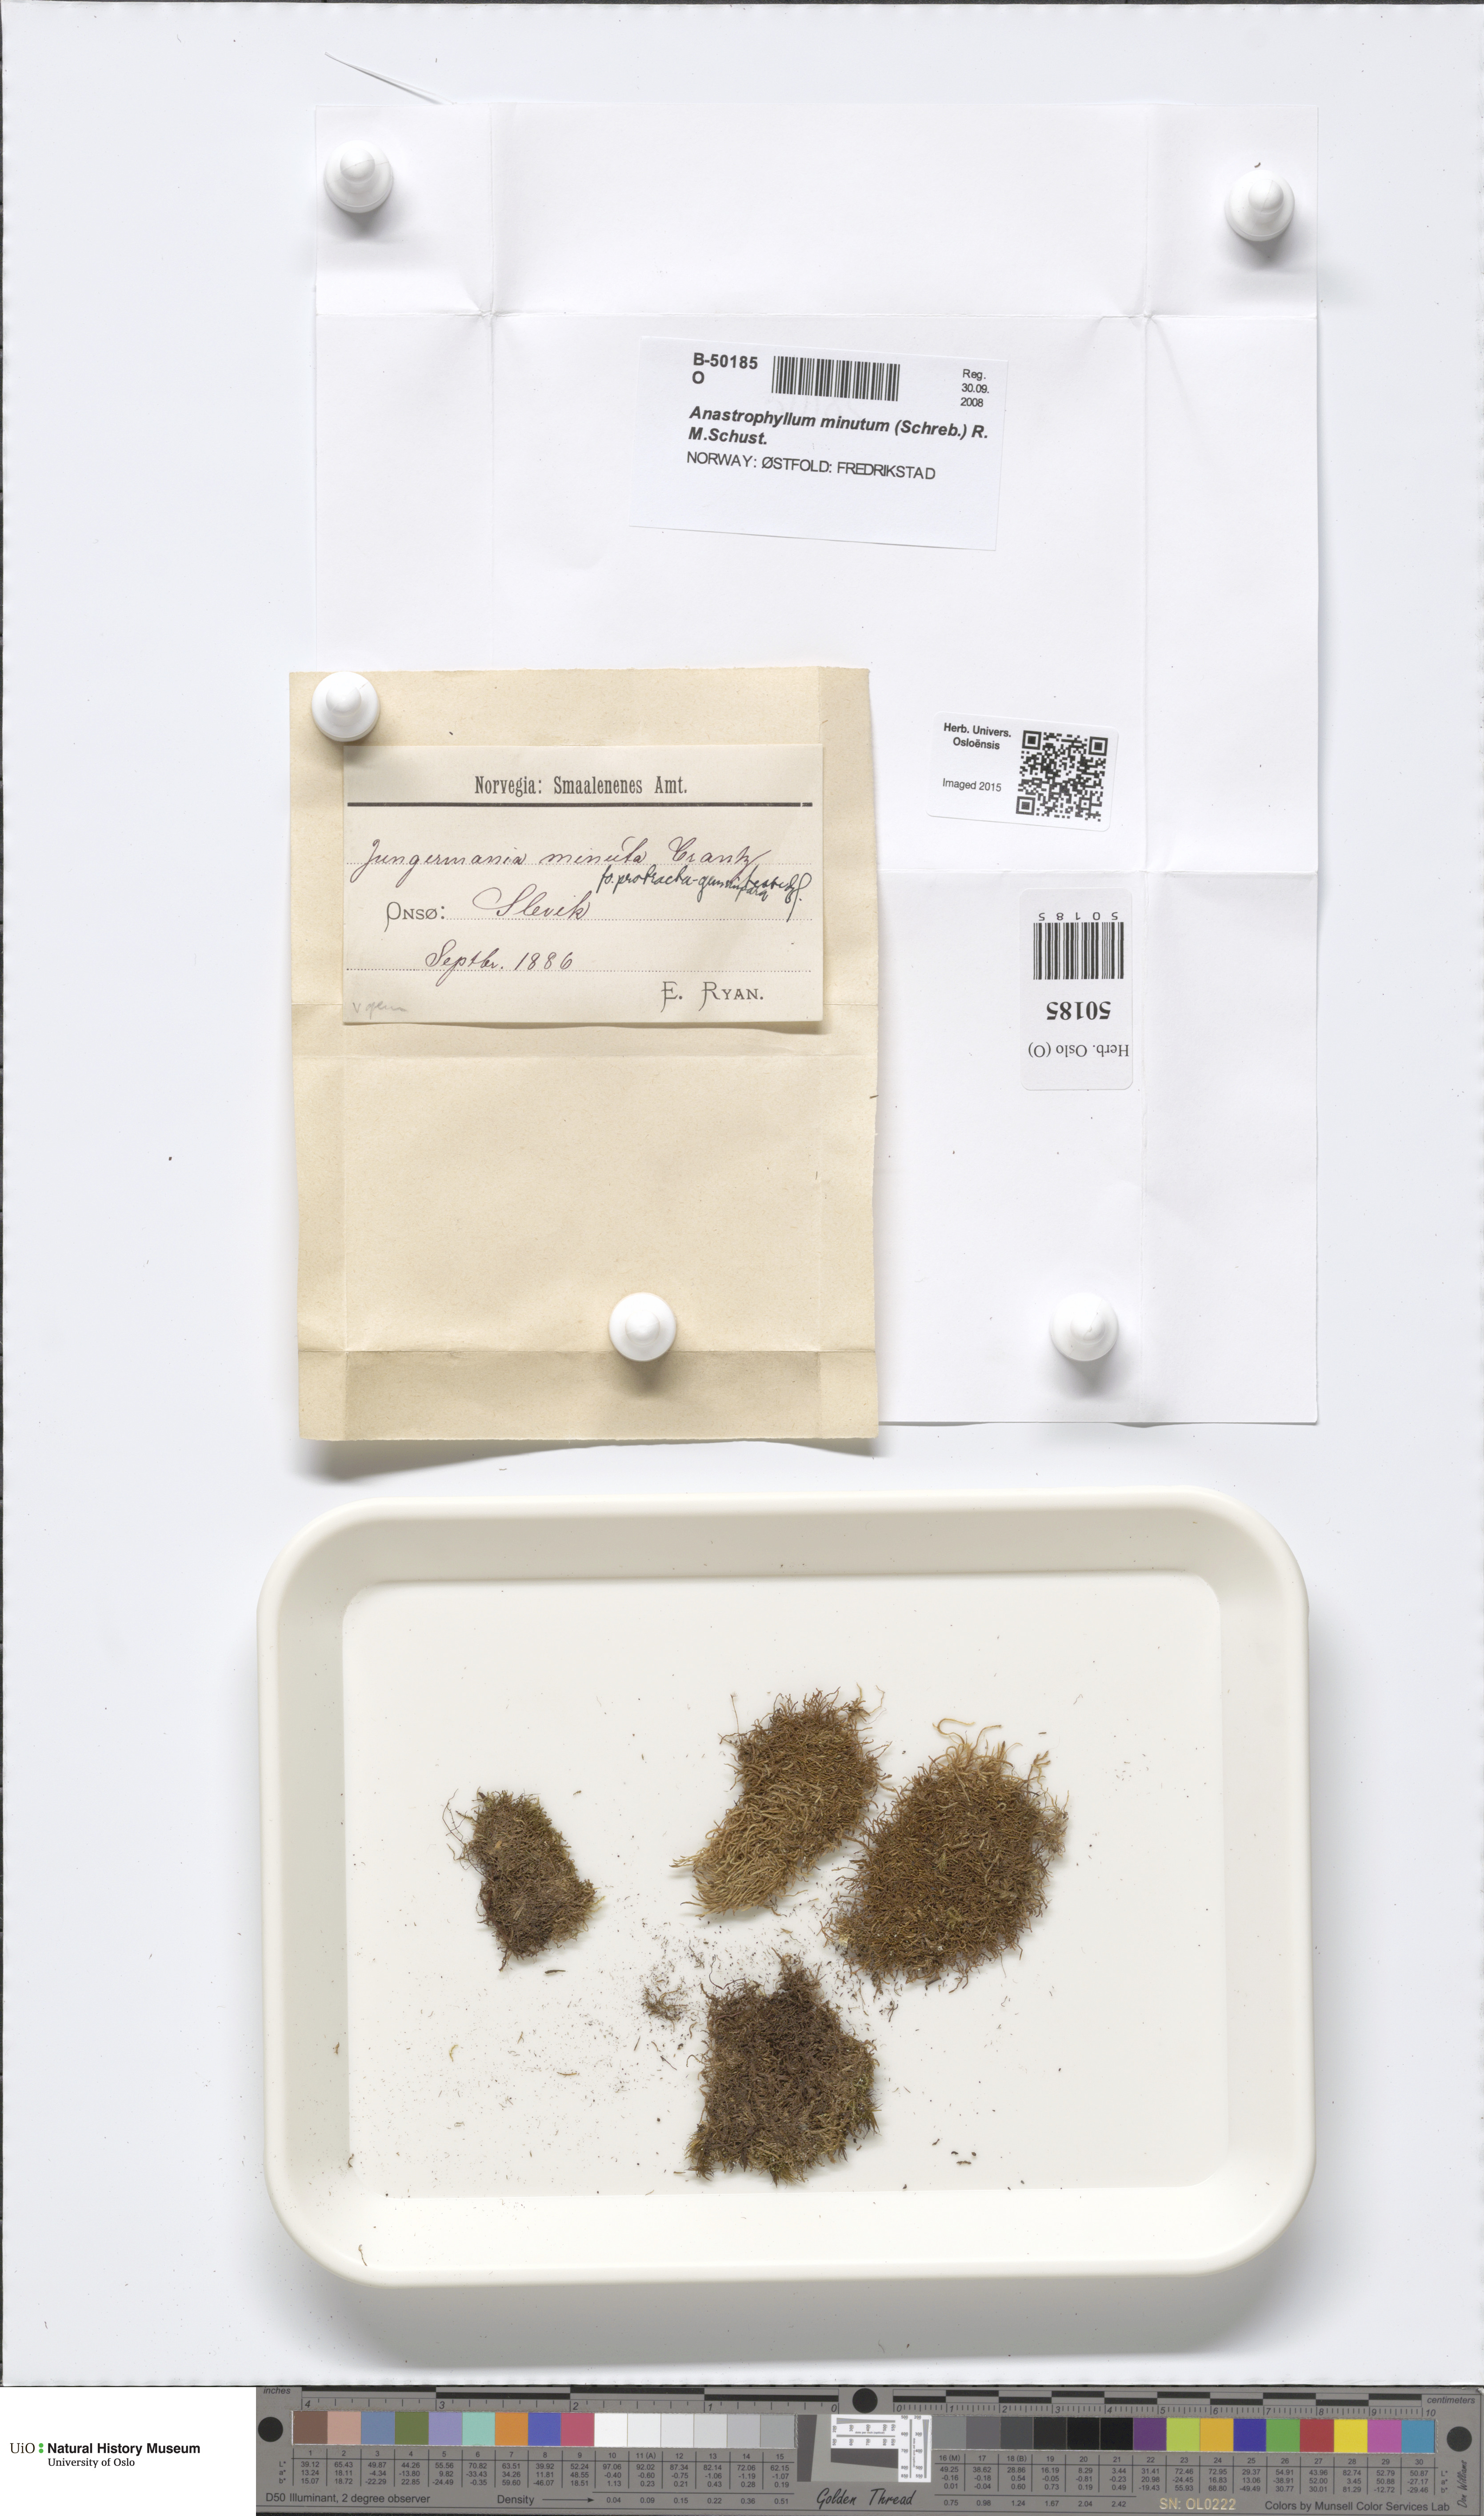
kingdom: Plantae
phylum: Marchantiophyta
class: Jungermanniopsida
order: Jungermanniales
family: Anastrophyllaceae
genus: Sphenolobus
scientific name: Sphenolobus minutus
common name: Comb notchwort
